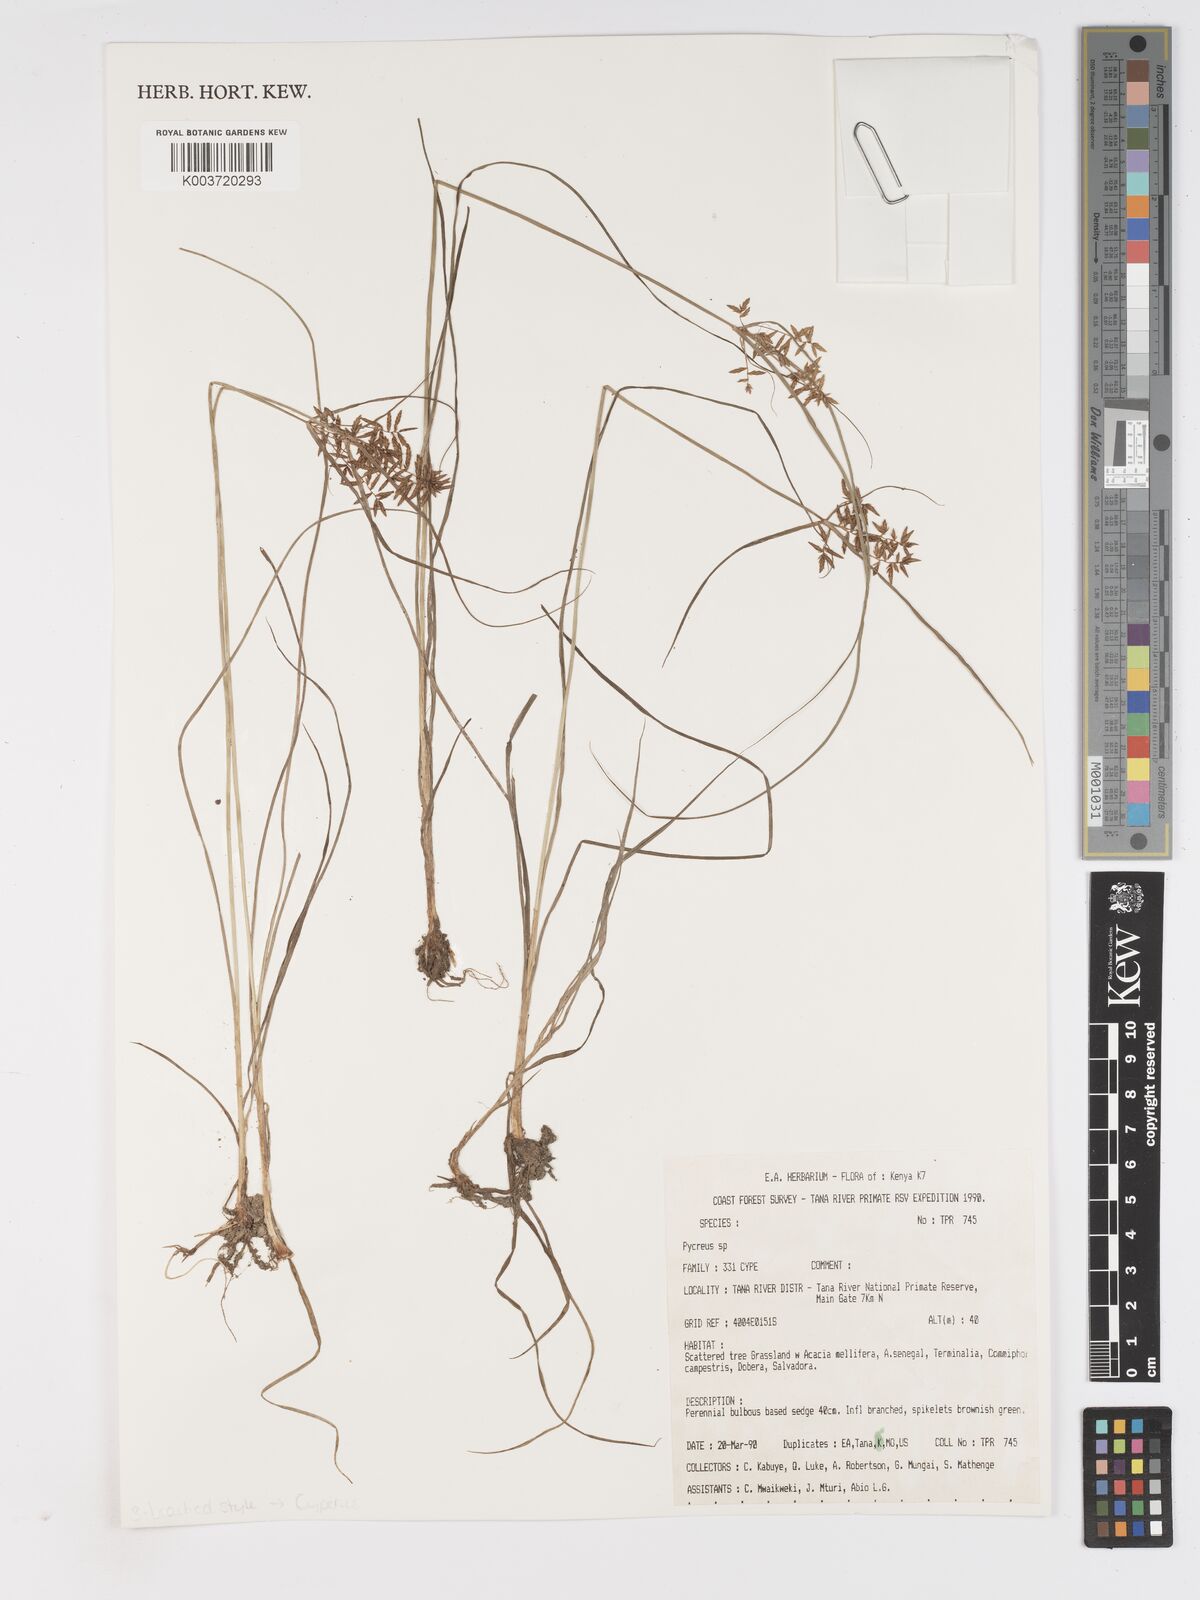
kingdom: Plantae
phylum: Tracheophyta
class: Liliopsida
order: Poales
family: Cyperaceae
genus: Cyperus
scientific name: Cyperus
